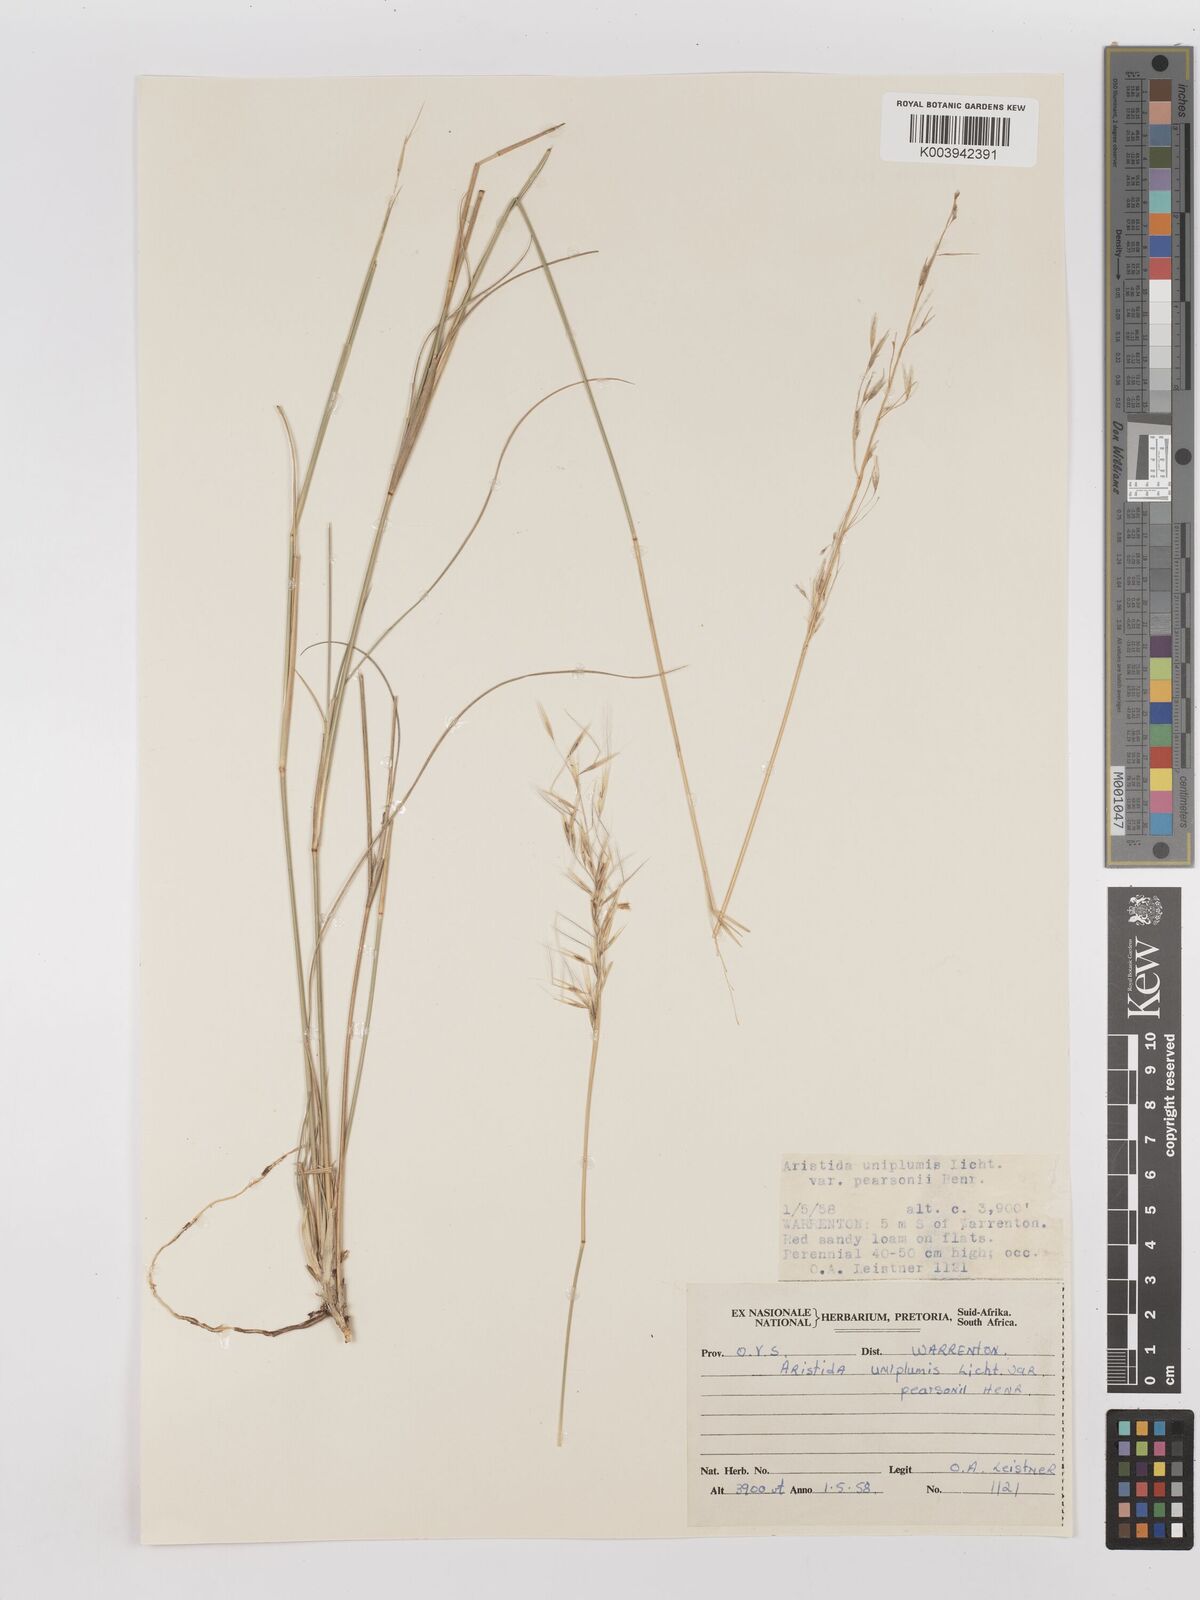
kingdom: Plantae
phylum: Tracheophyta
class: Liliopsida
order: Poales
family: Poaceae
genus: Stipagrostis
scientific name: Stipagrostis uniplumis
